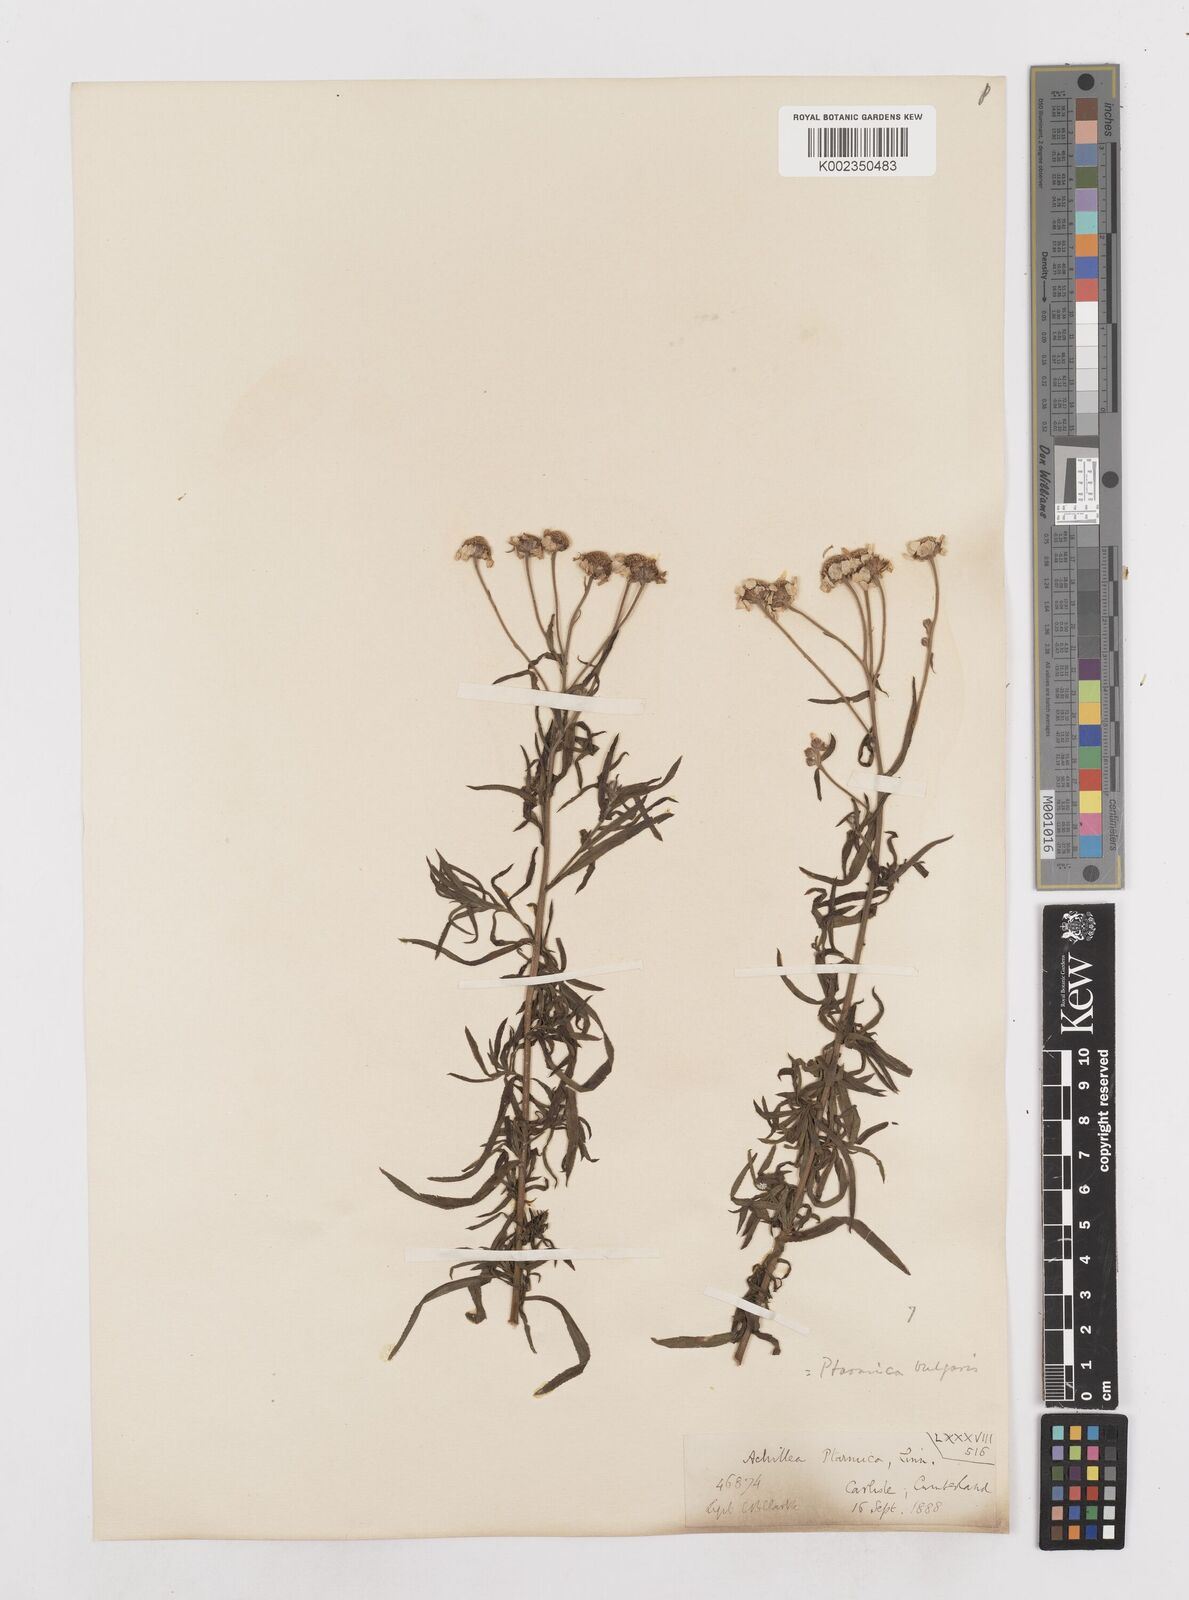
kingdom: Plantae
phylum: Tracheophyta
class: Magnoliopsida
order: Asterales
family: Asteraceae
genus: Achillea
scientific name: Achillea ptarmica
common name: Sneezeweed
